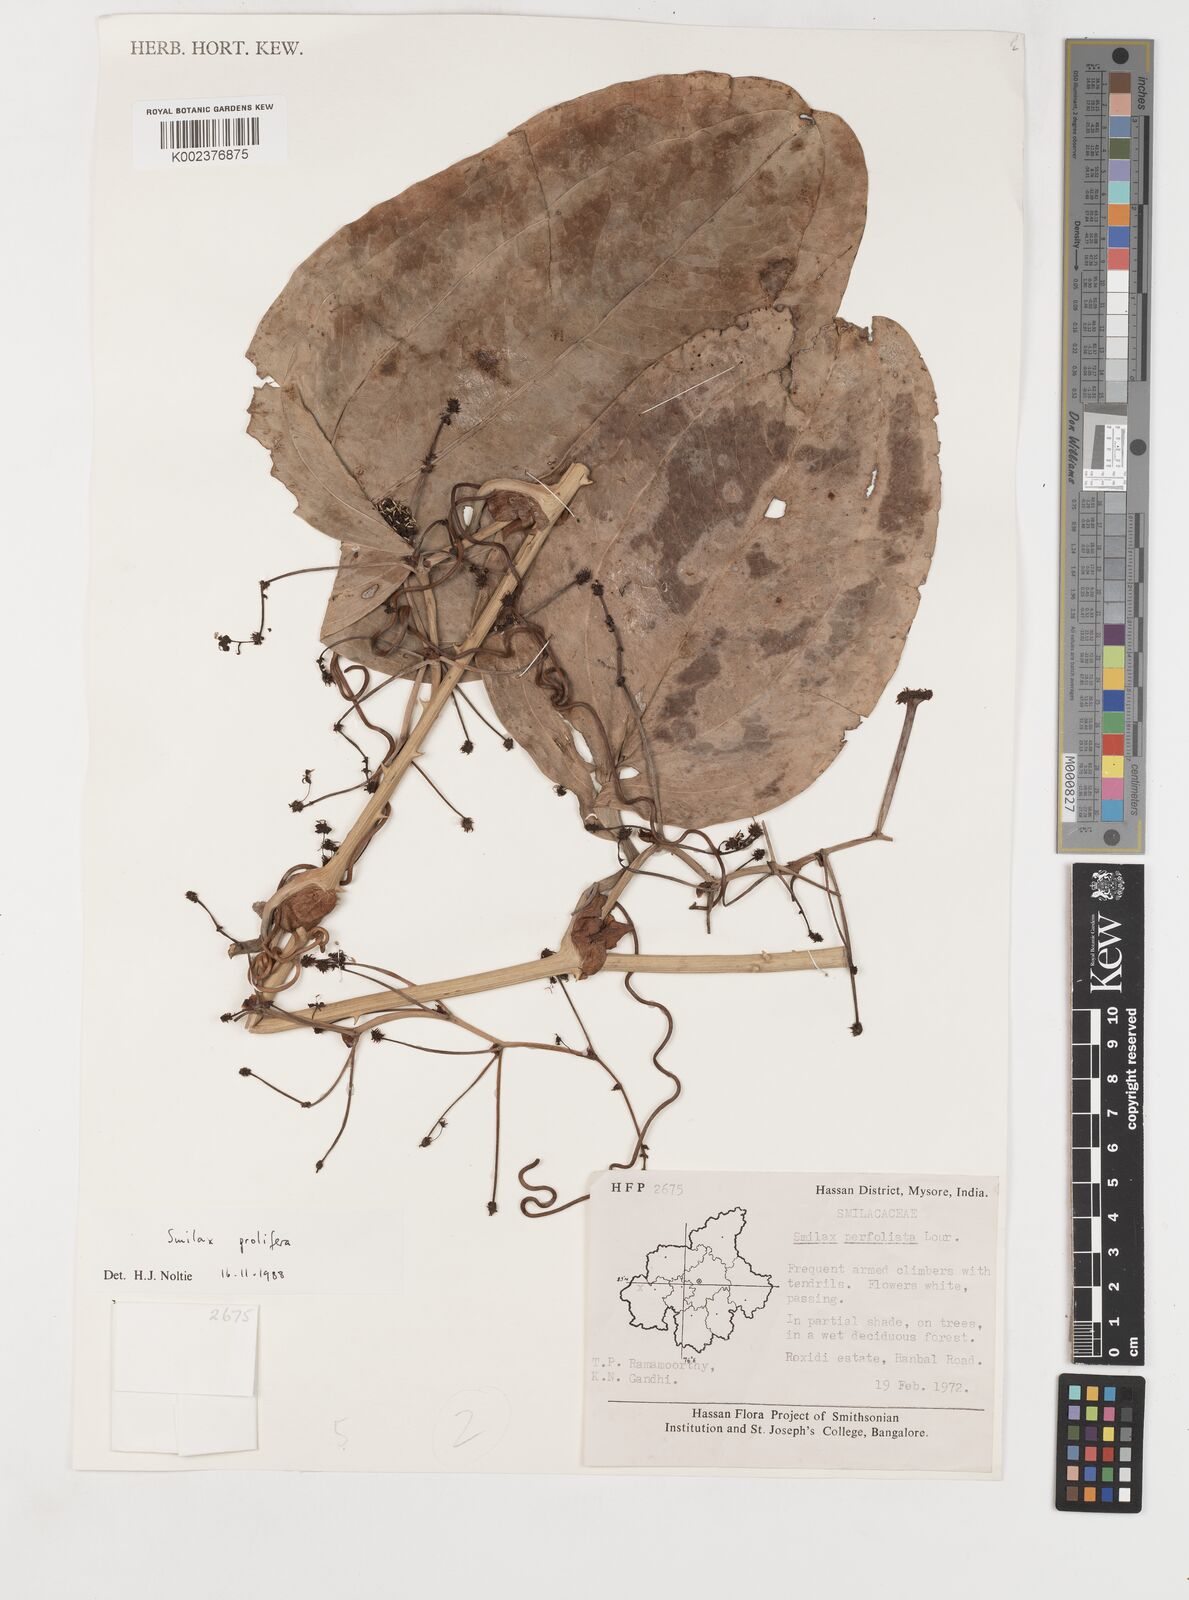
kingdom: Plantae
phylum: Tracheophyta
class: Liliopsida
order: Liliales
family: Smilacaceae
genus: Smilax
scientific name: Smilax prolifera
